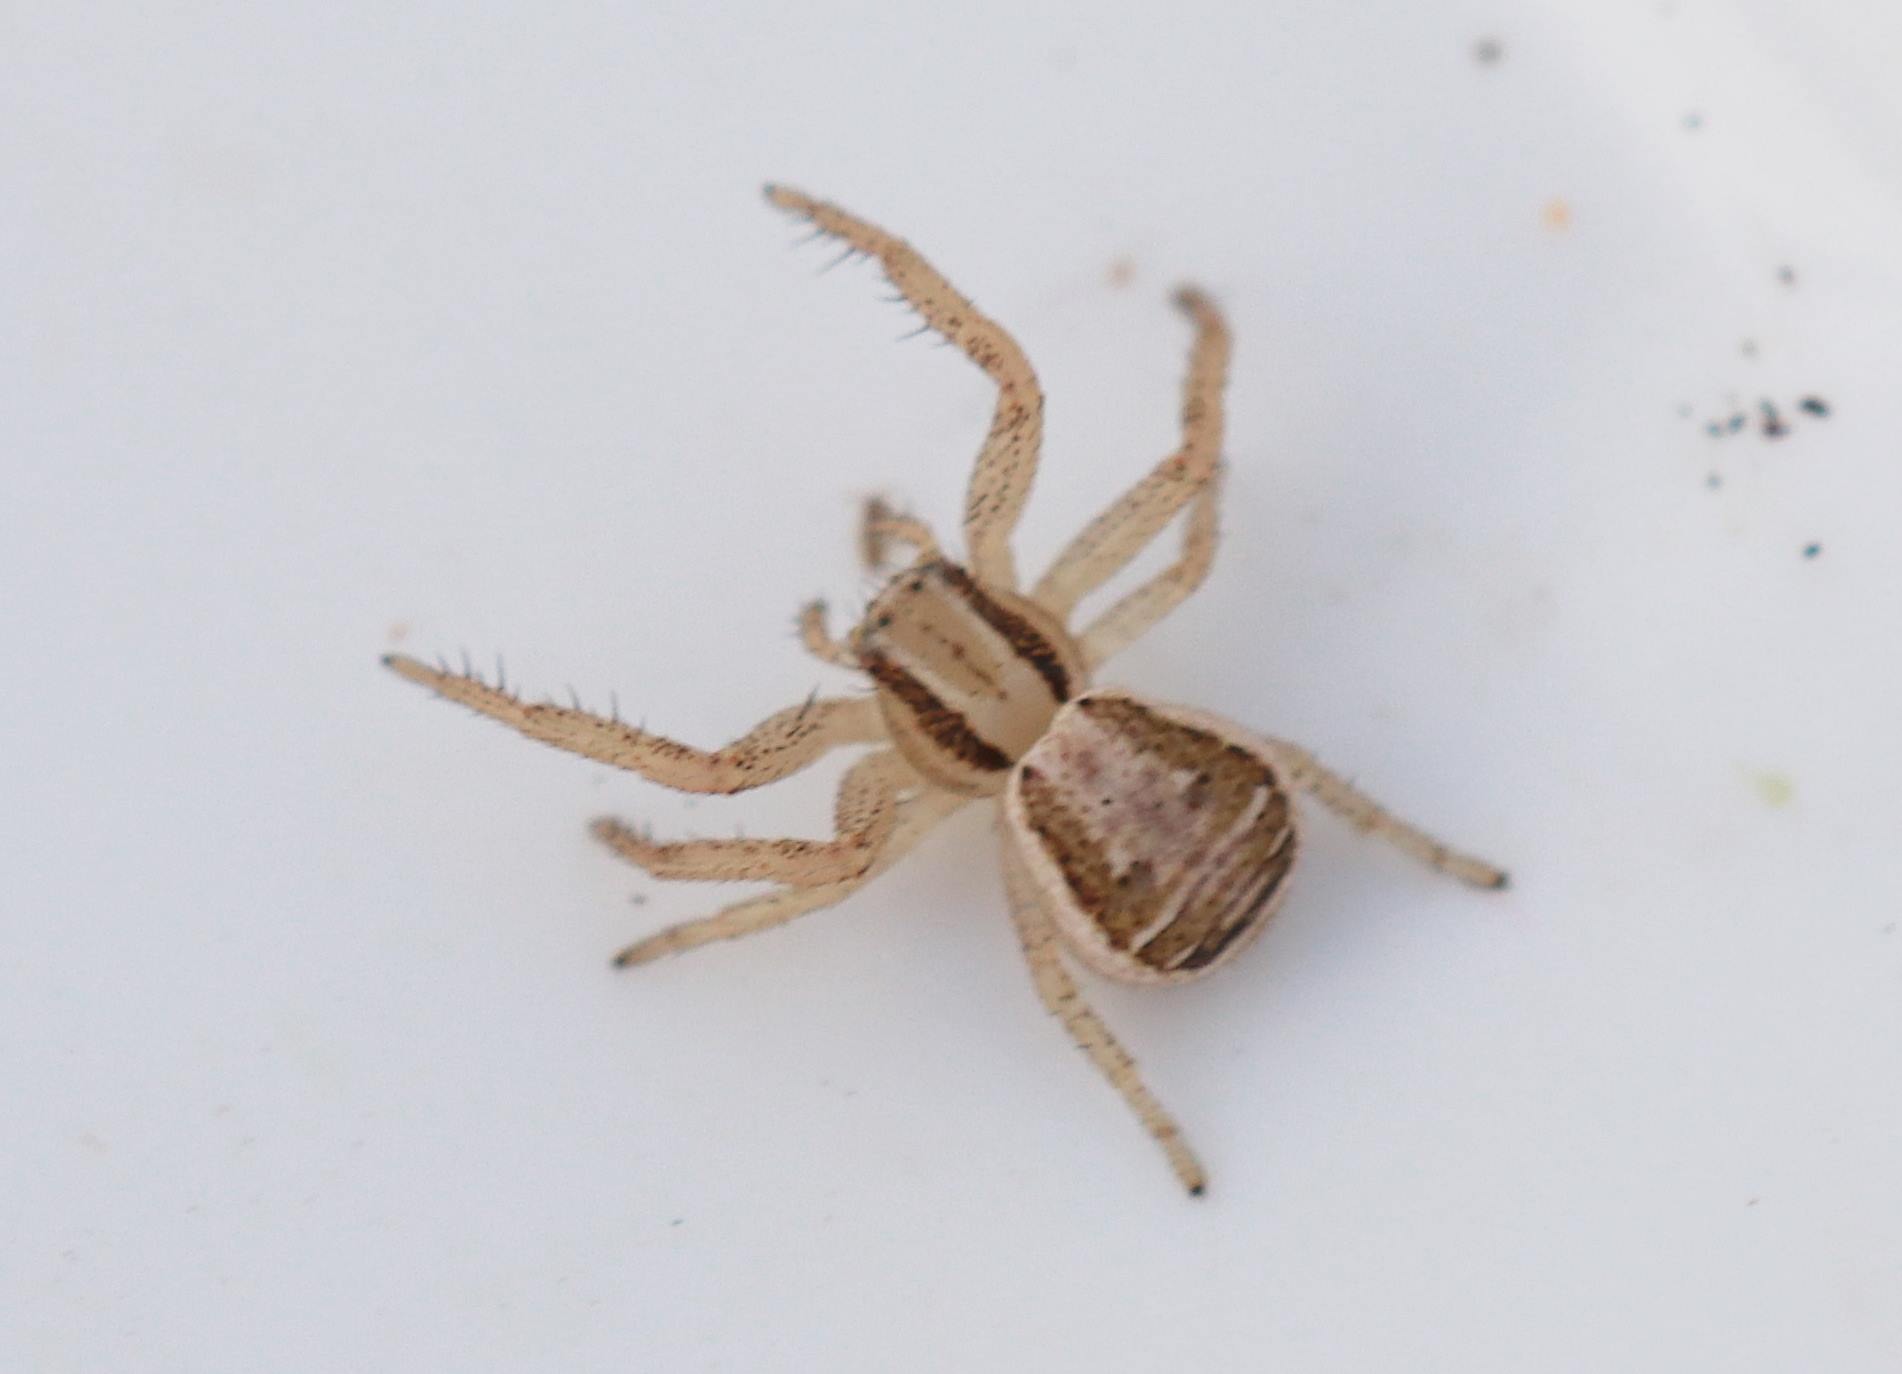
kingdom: Animalia
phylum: Arthropoda
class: Arachnida
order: Araneae
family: Thomisidae
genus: Xysticus
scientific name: Xysticus ulmi
